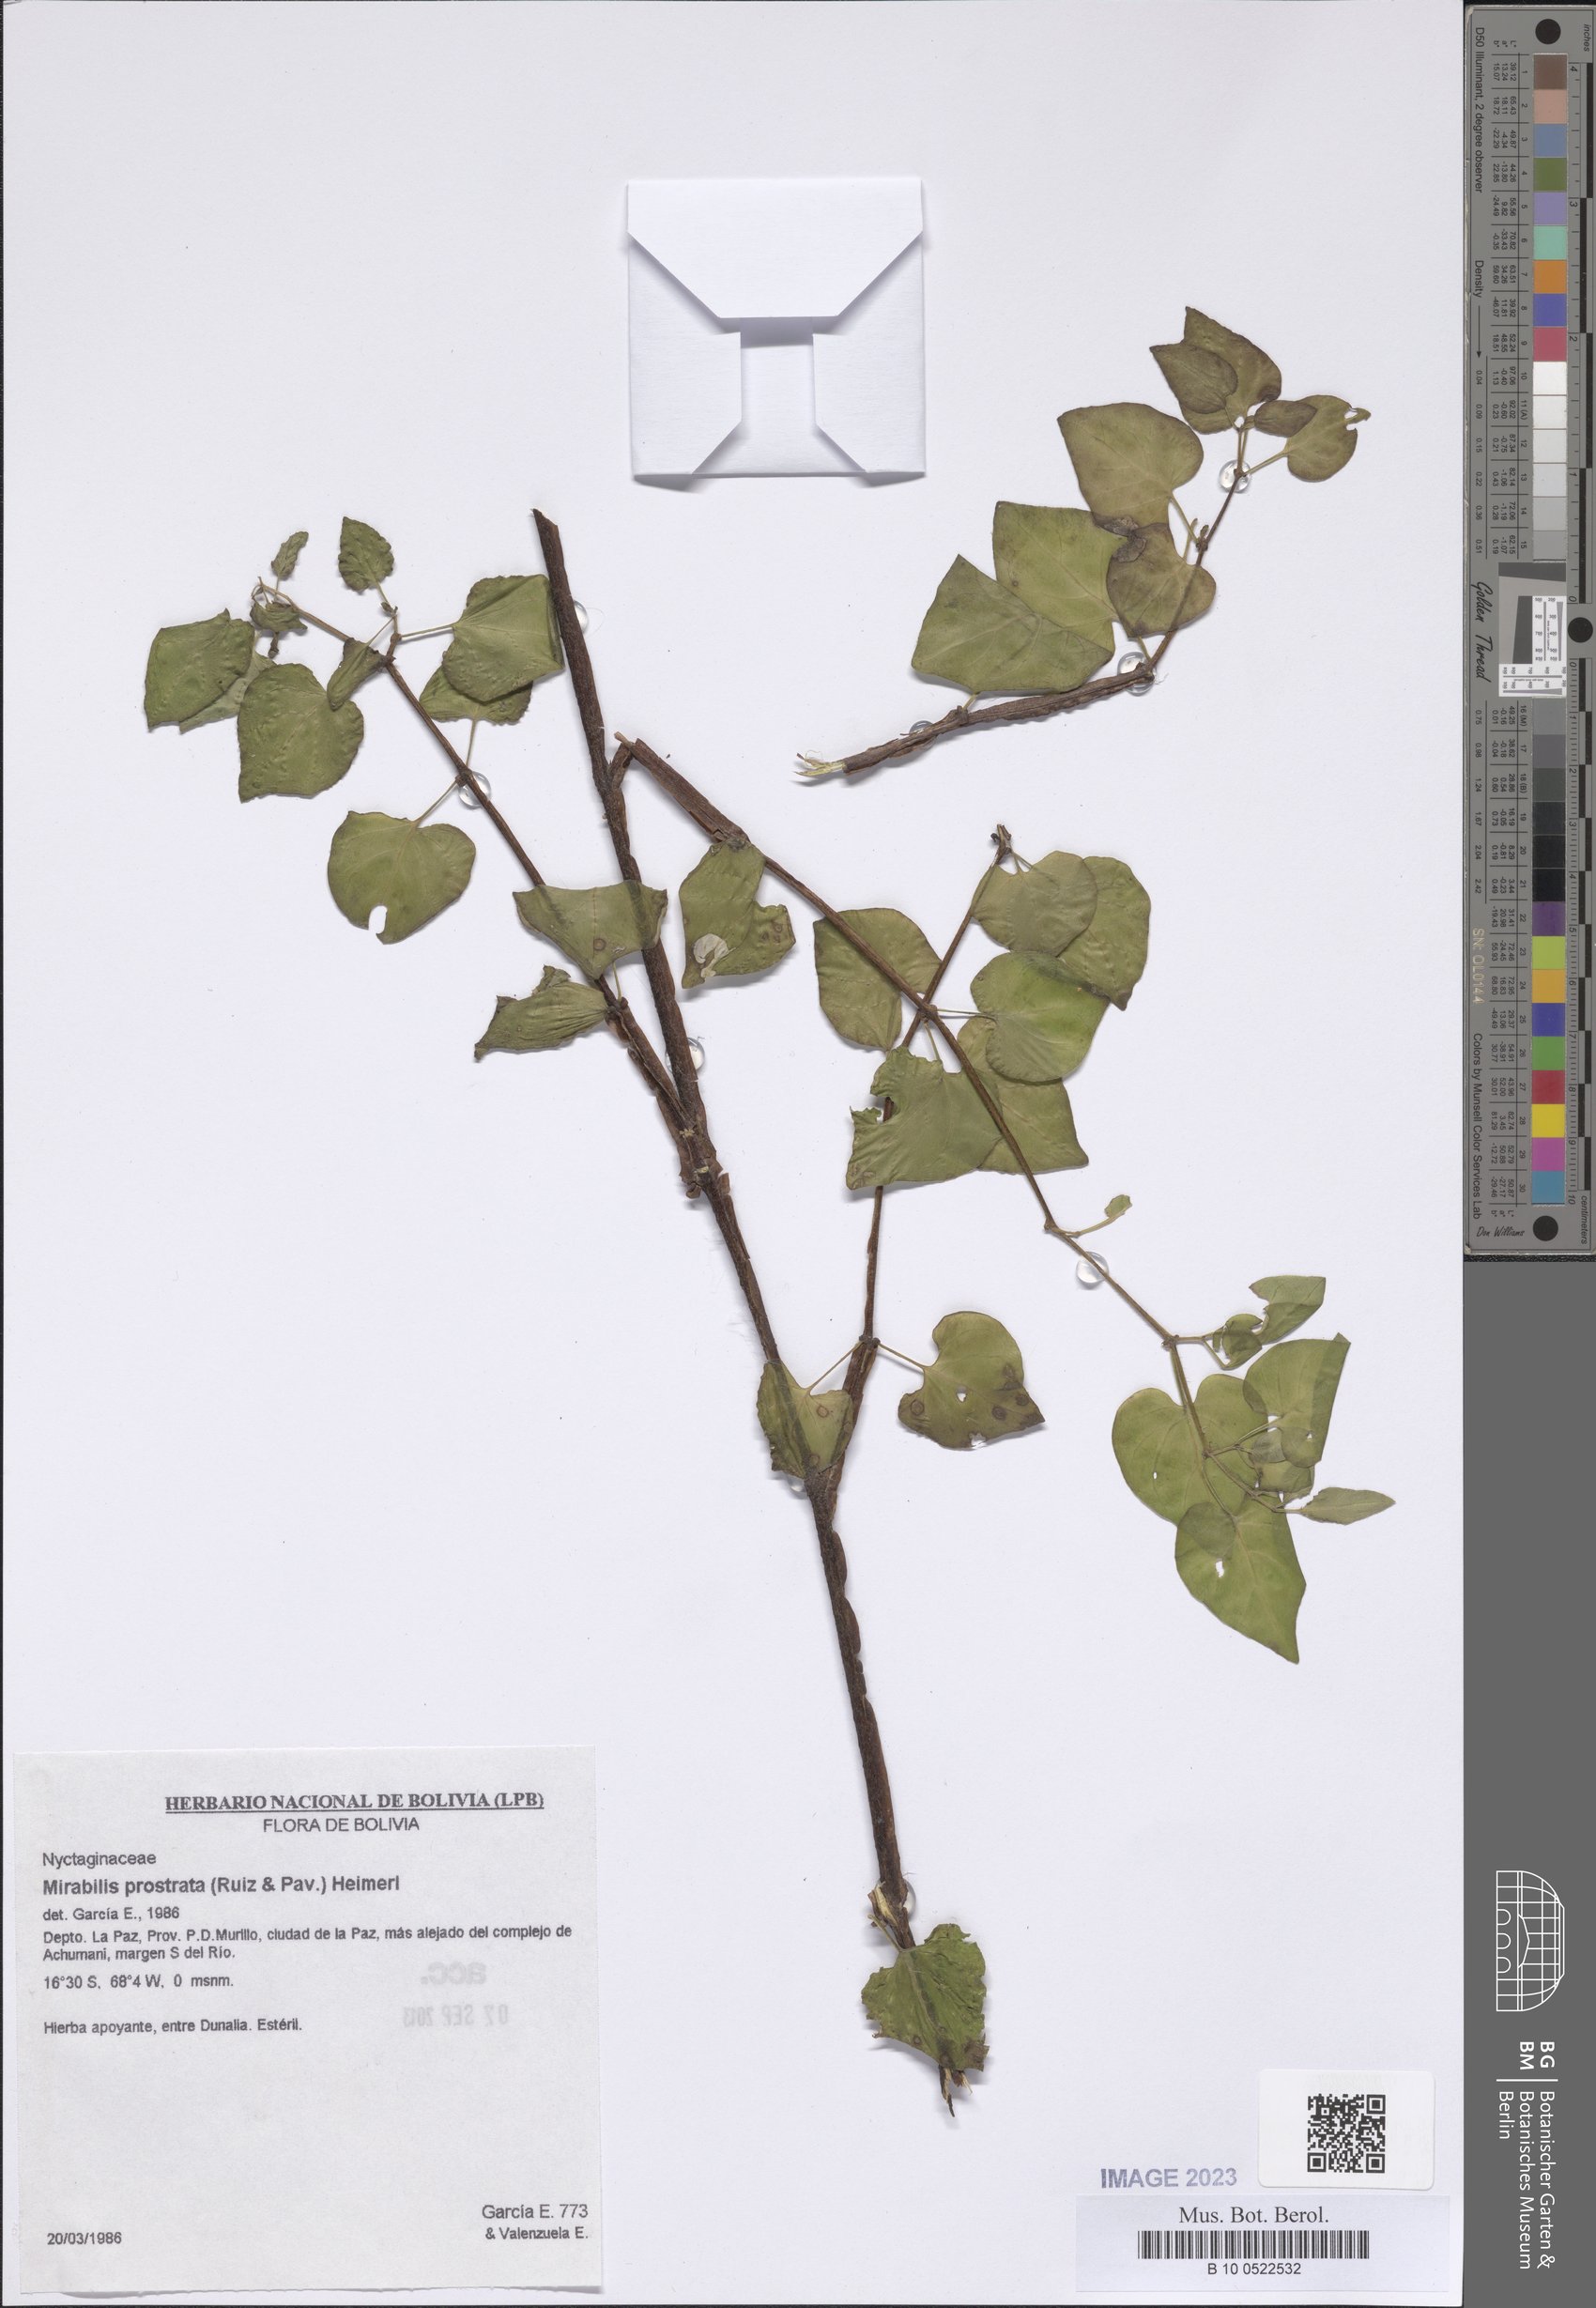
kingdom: Plantae
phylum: Tracheophyta
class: Magnoliopsida
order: Caryophyllales
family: Nyctaginaceae
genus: Mirabilis
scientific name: Mirabilis prostrata
